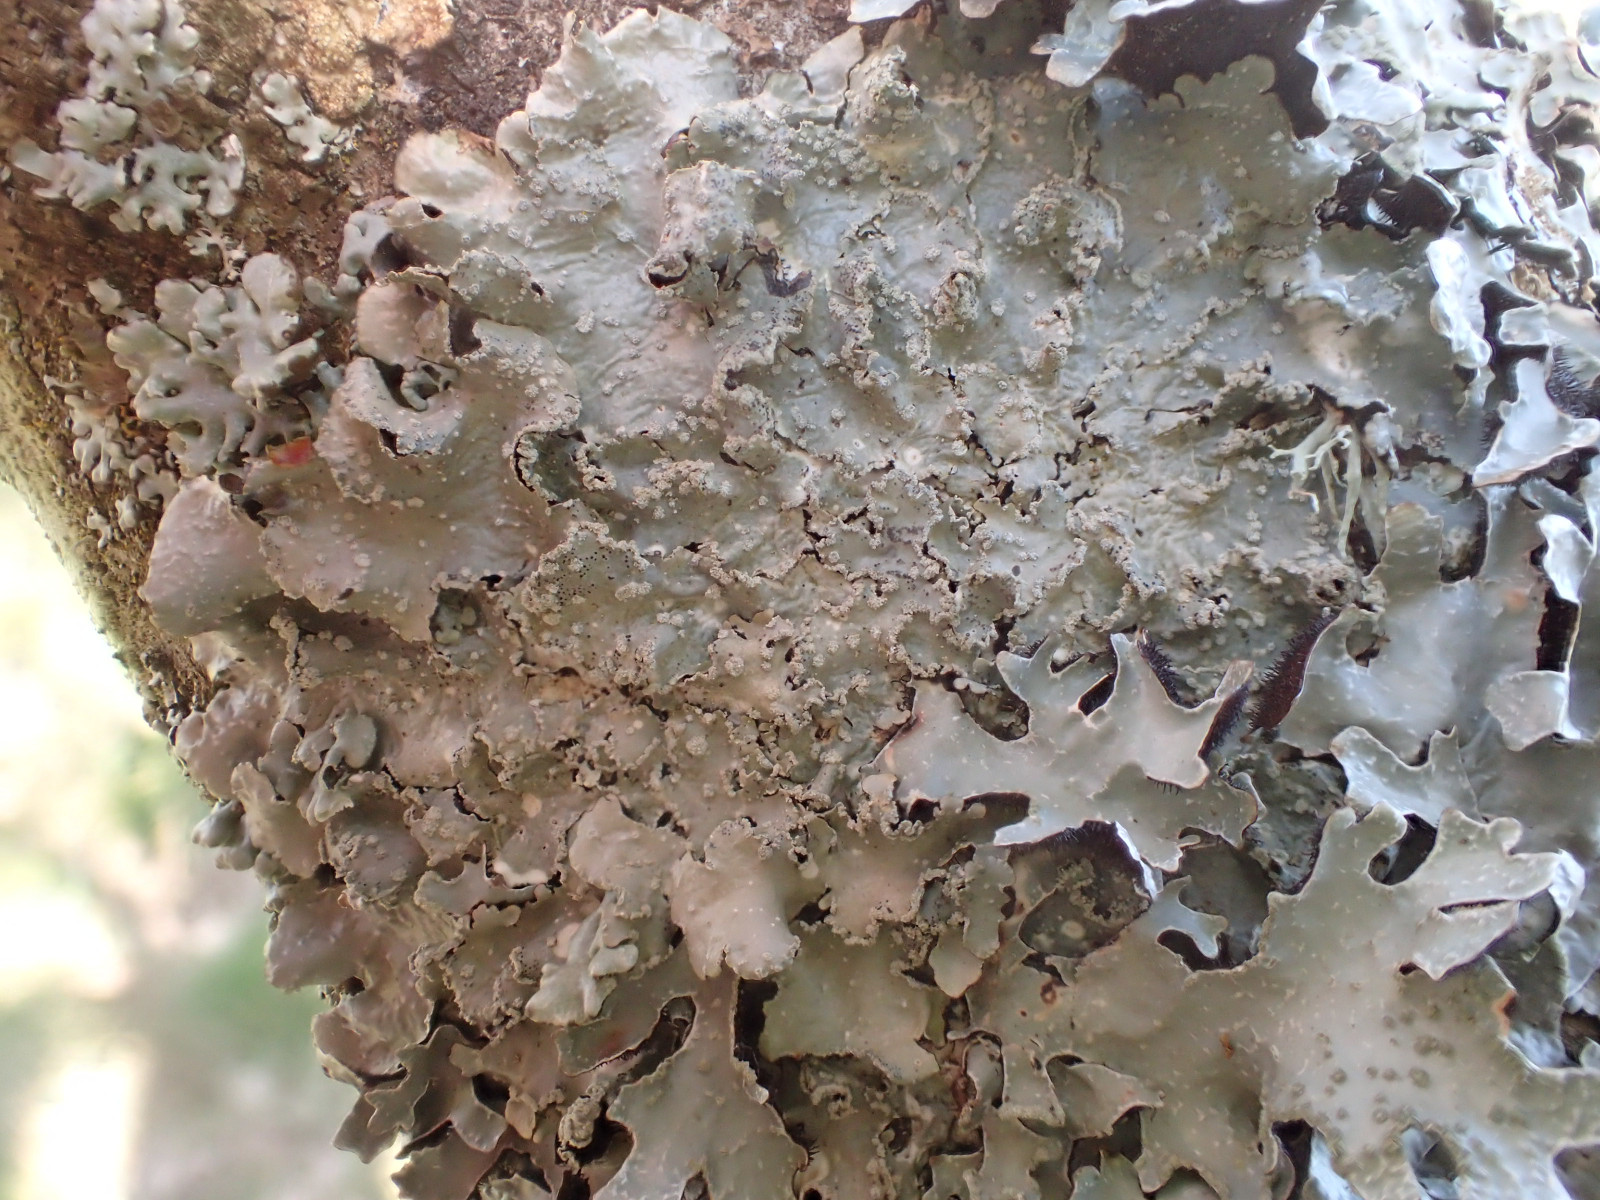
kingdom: Fungi
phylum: Ascomycota
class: Lecanoromycetes
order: Lecanorales
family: Parmeliaceae
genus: Punctelia
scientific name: Punctelia subrudecta
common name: punkt-skållav
